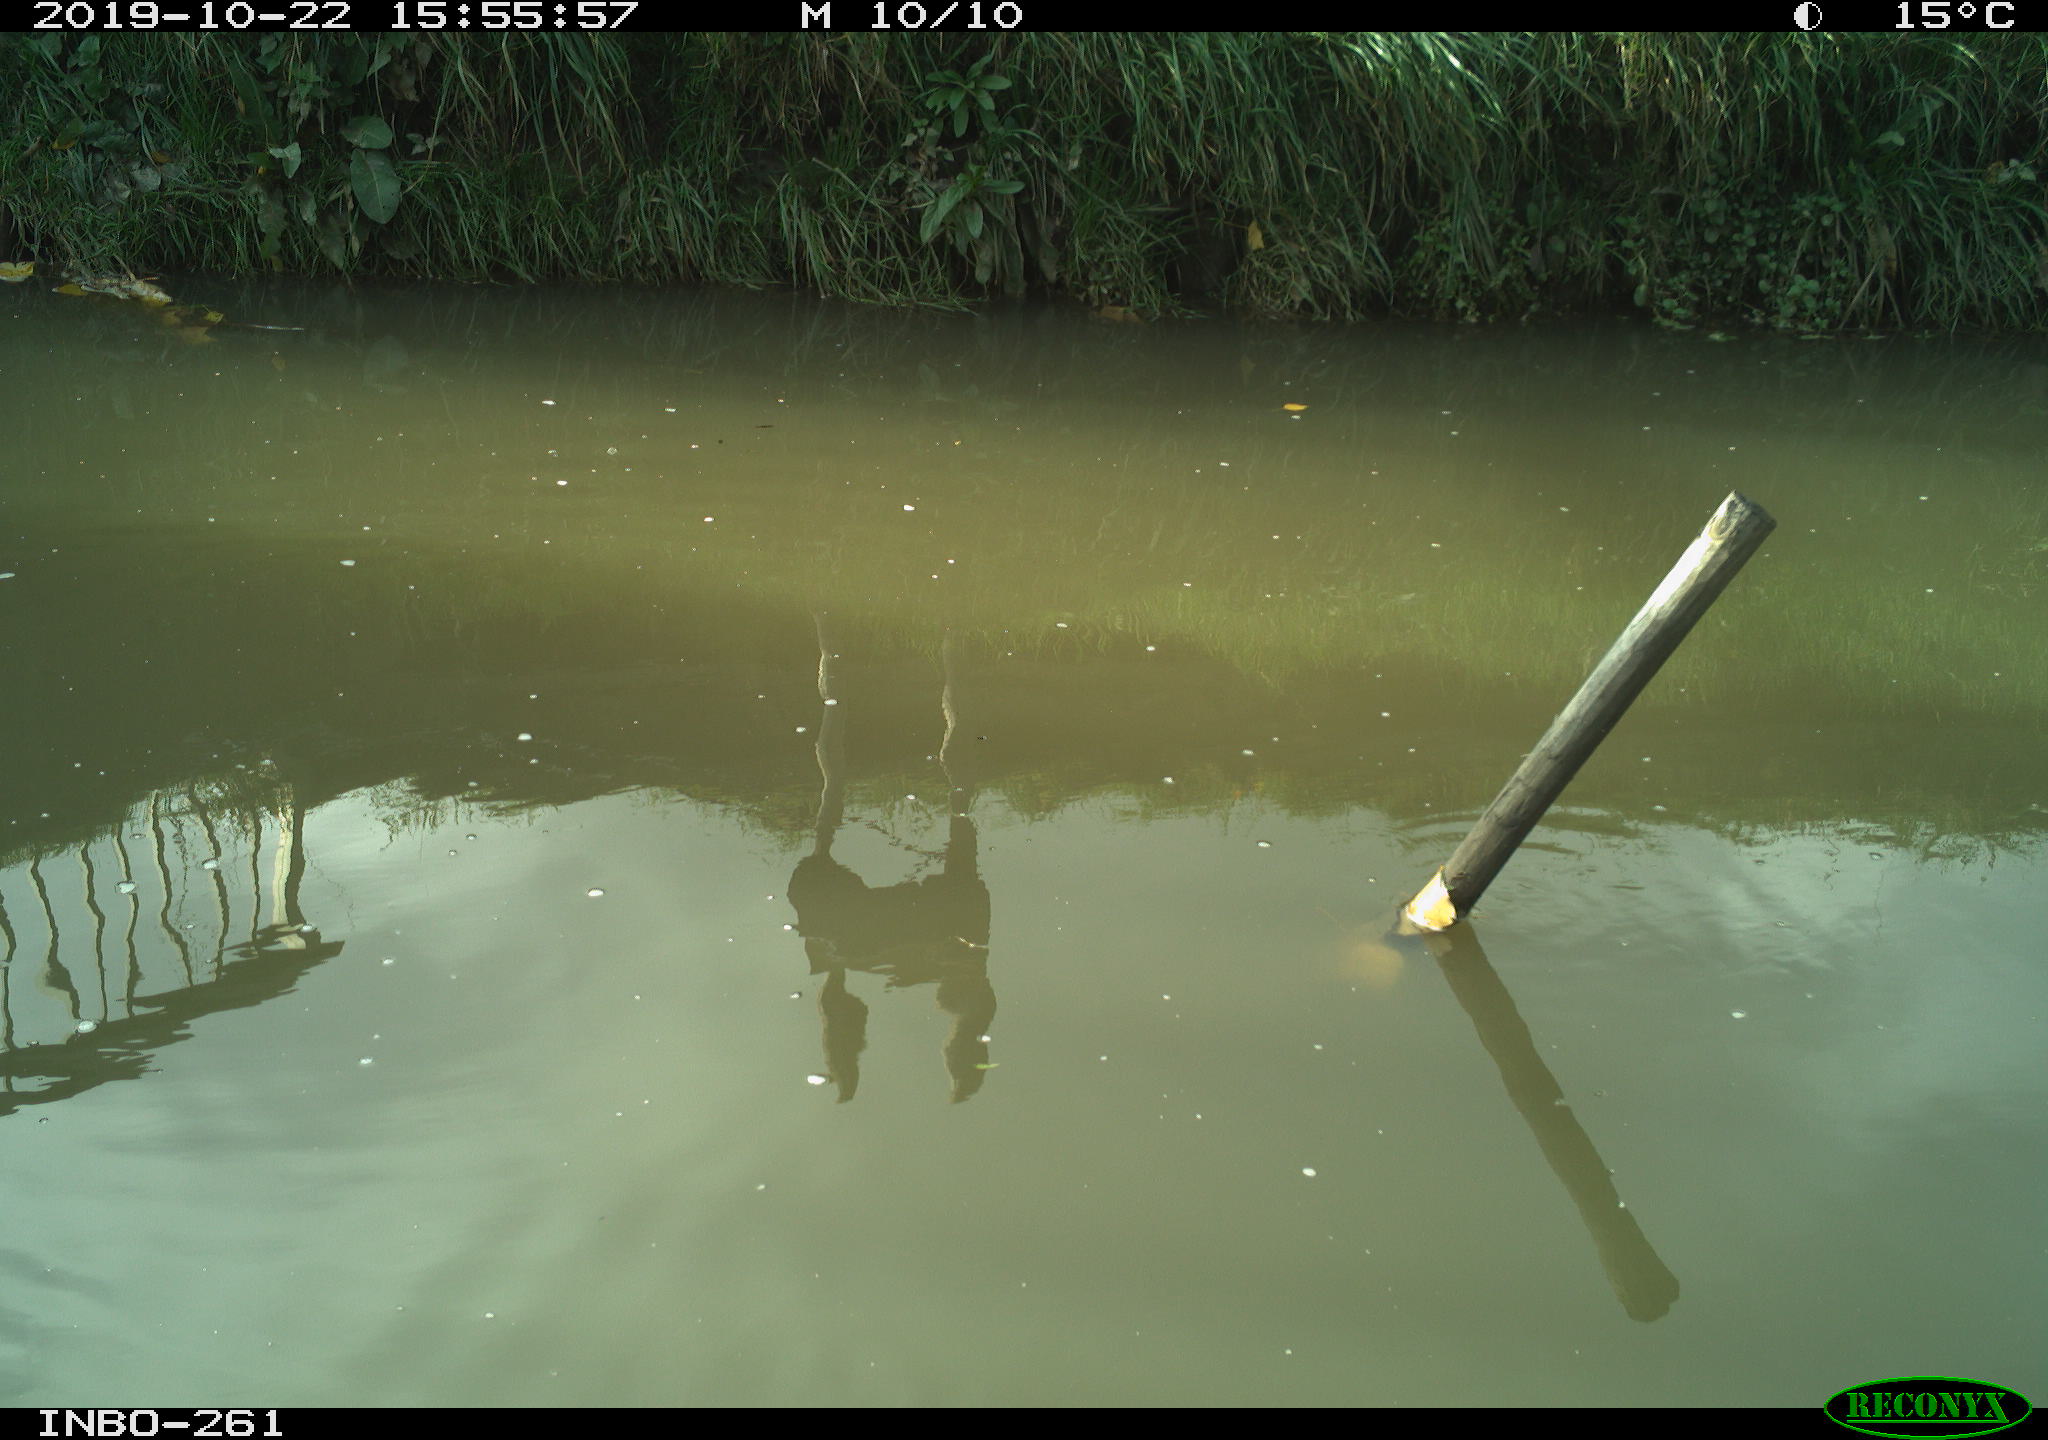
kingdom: Animalia
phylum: Chordata
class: Aves
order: Gruiformes
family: Rallidae
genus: Gallinula
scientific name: Gallinula chloropus
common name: Common moorhen
